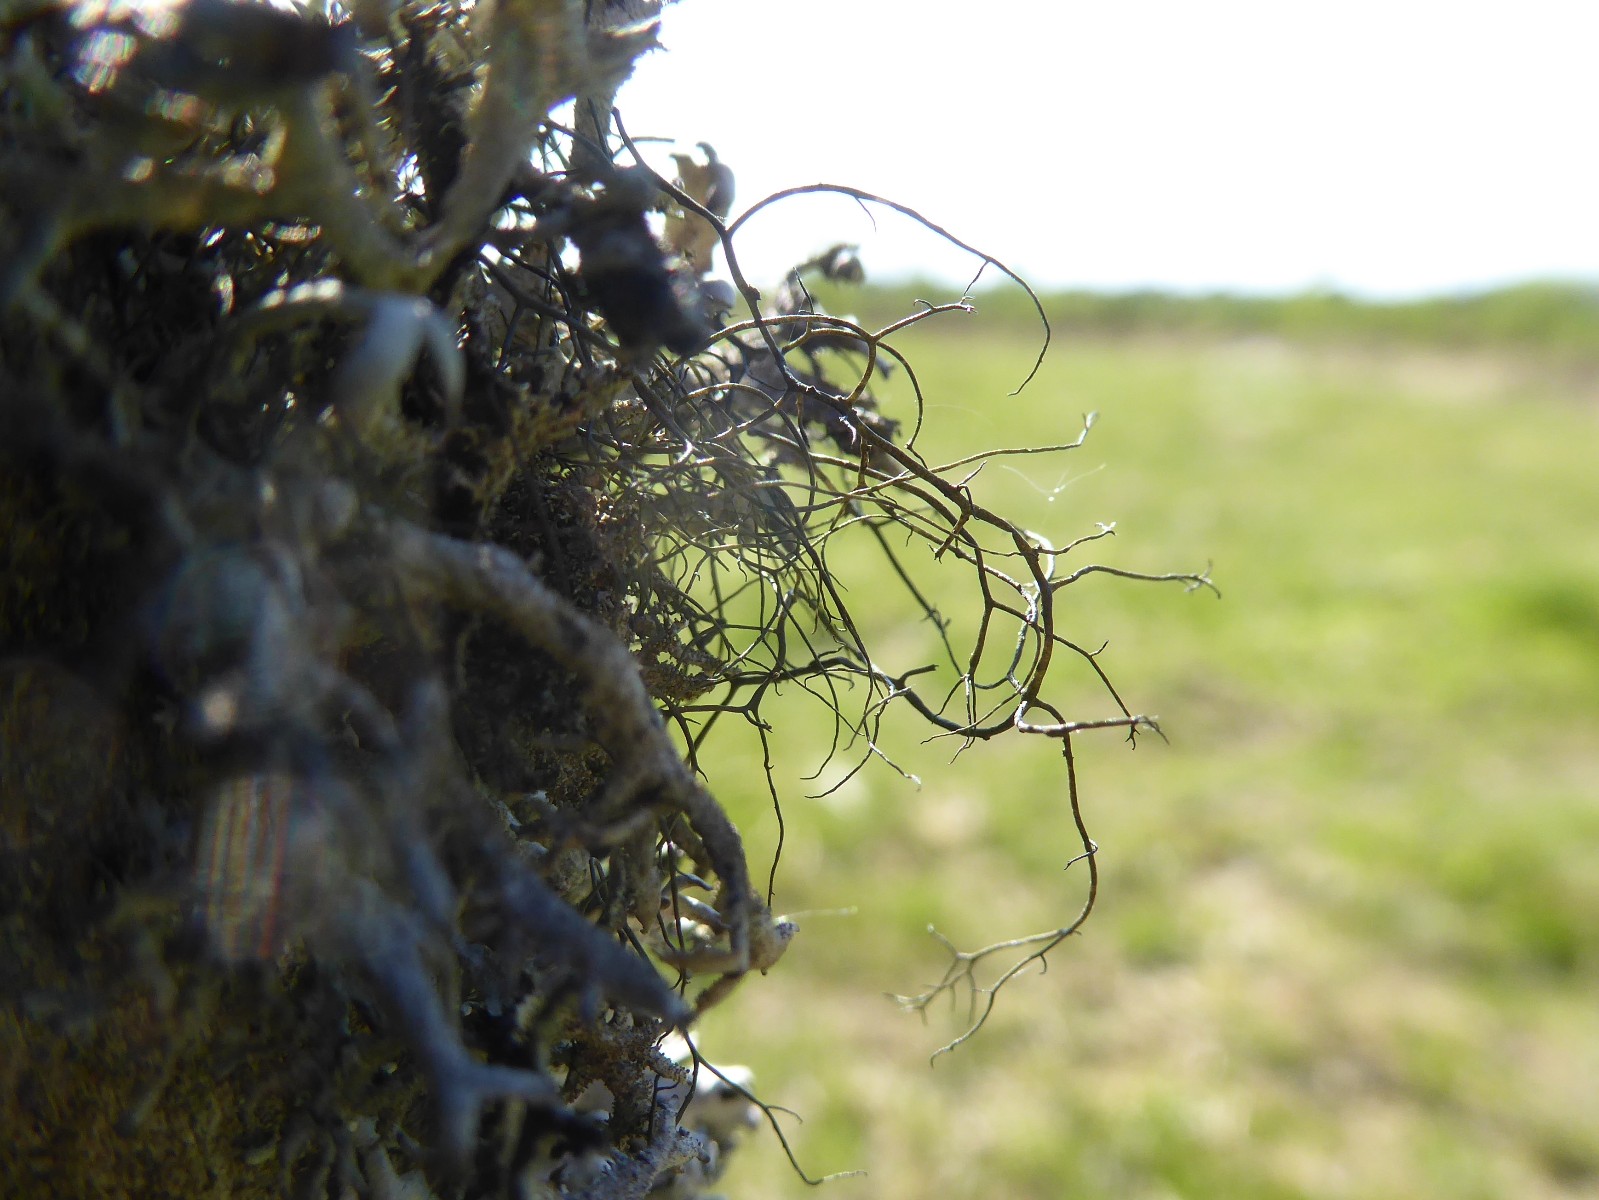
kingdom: Fungi
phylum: Ascomycota
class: Lecanoromycetes
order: Lecanorales
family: Parmeliaceae
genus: Bryoria
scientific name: Bryoria
